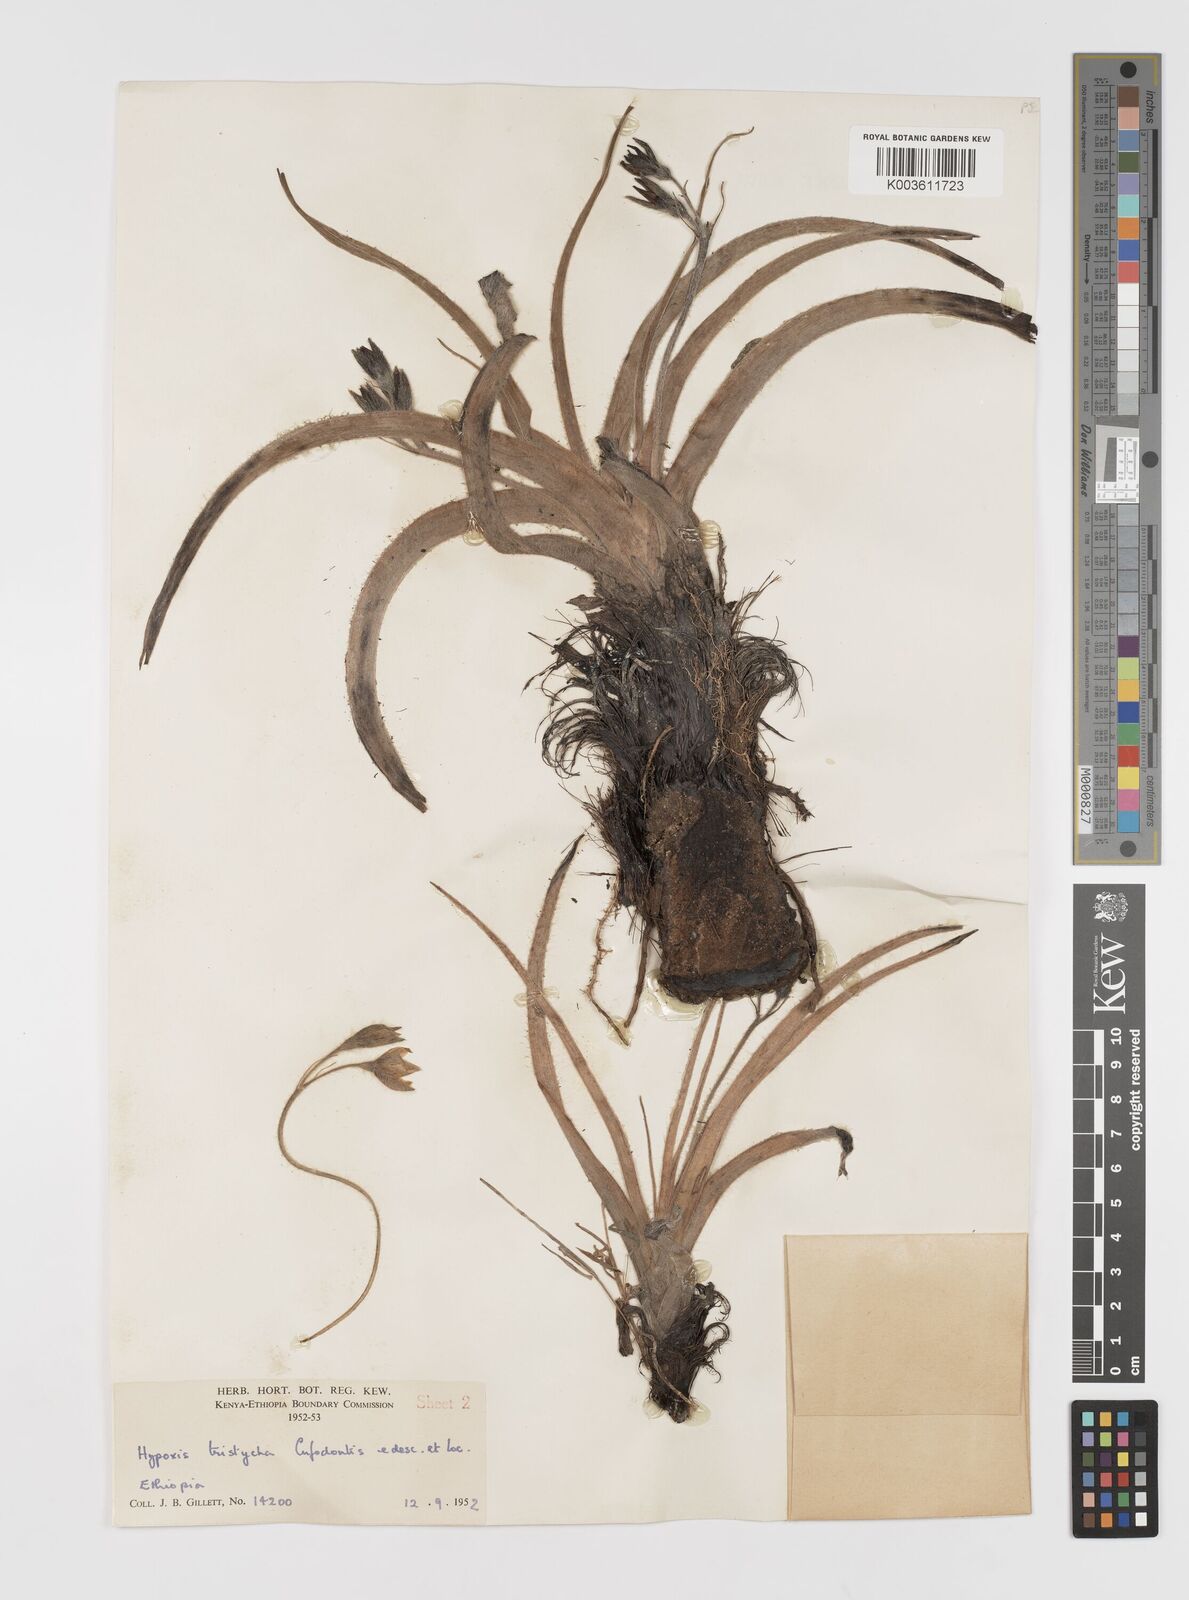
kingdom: Plantae
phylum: Tracheophyta
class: Liliopsida
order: Asparagales
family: Hypoxidaceae
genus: Hypoxis
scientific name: Hypoxis abyssinica
